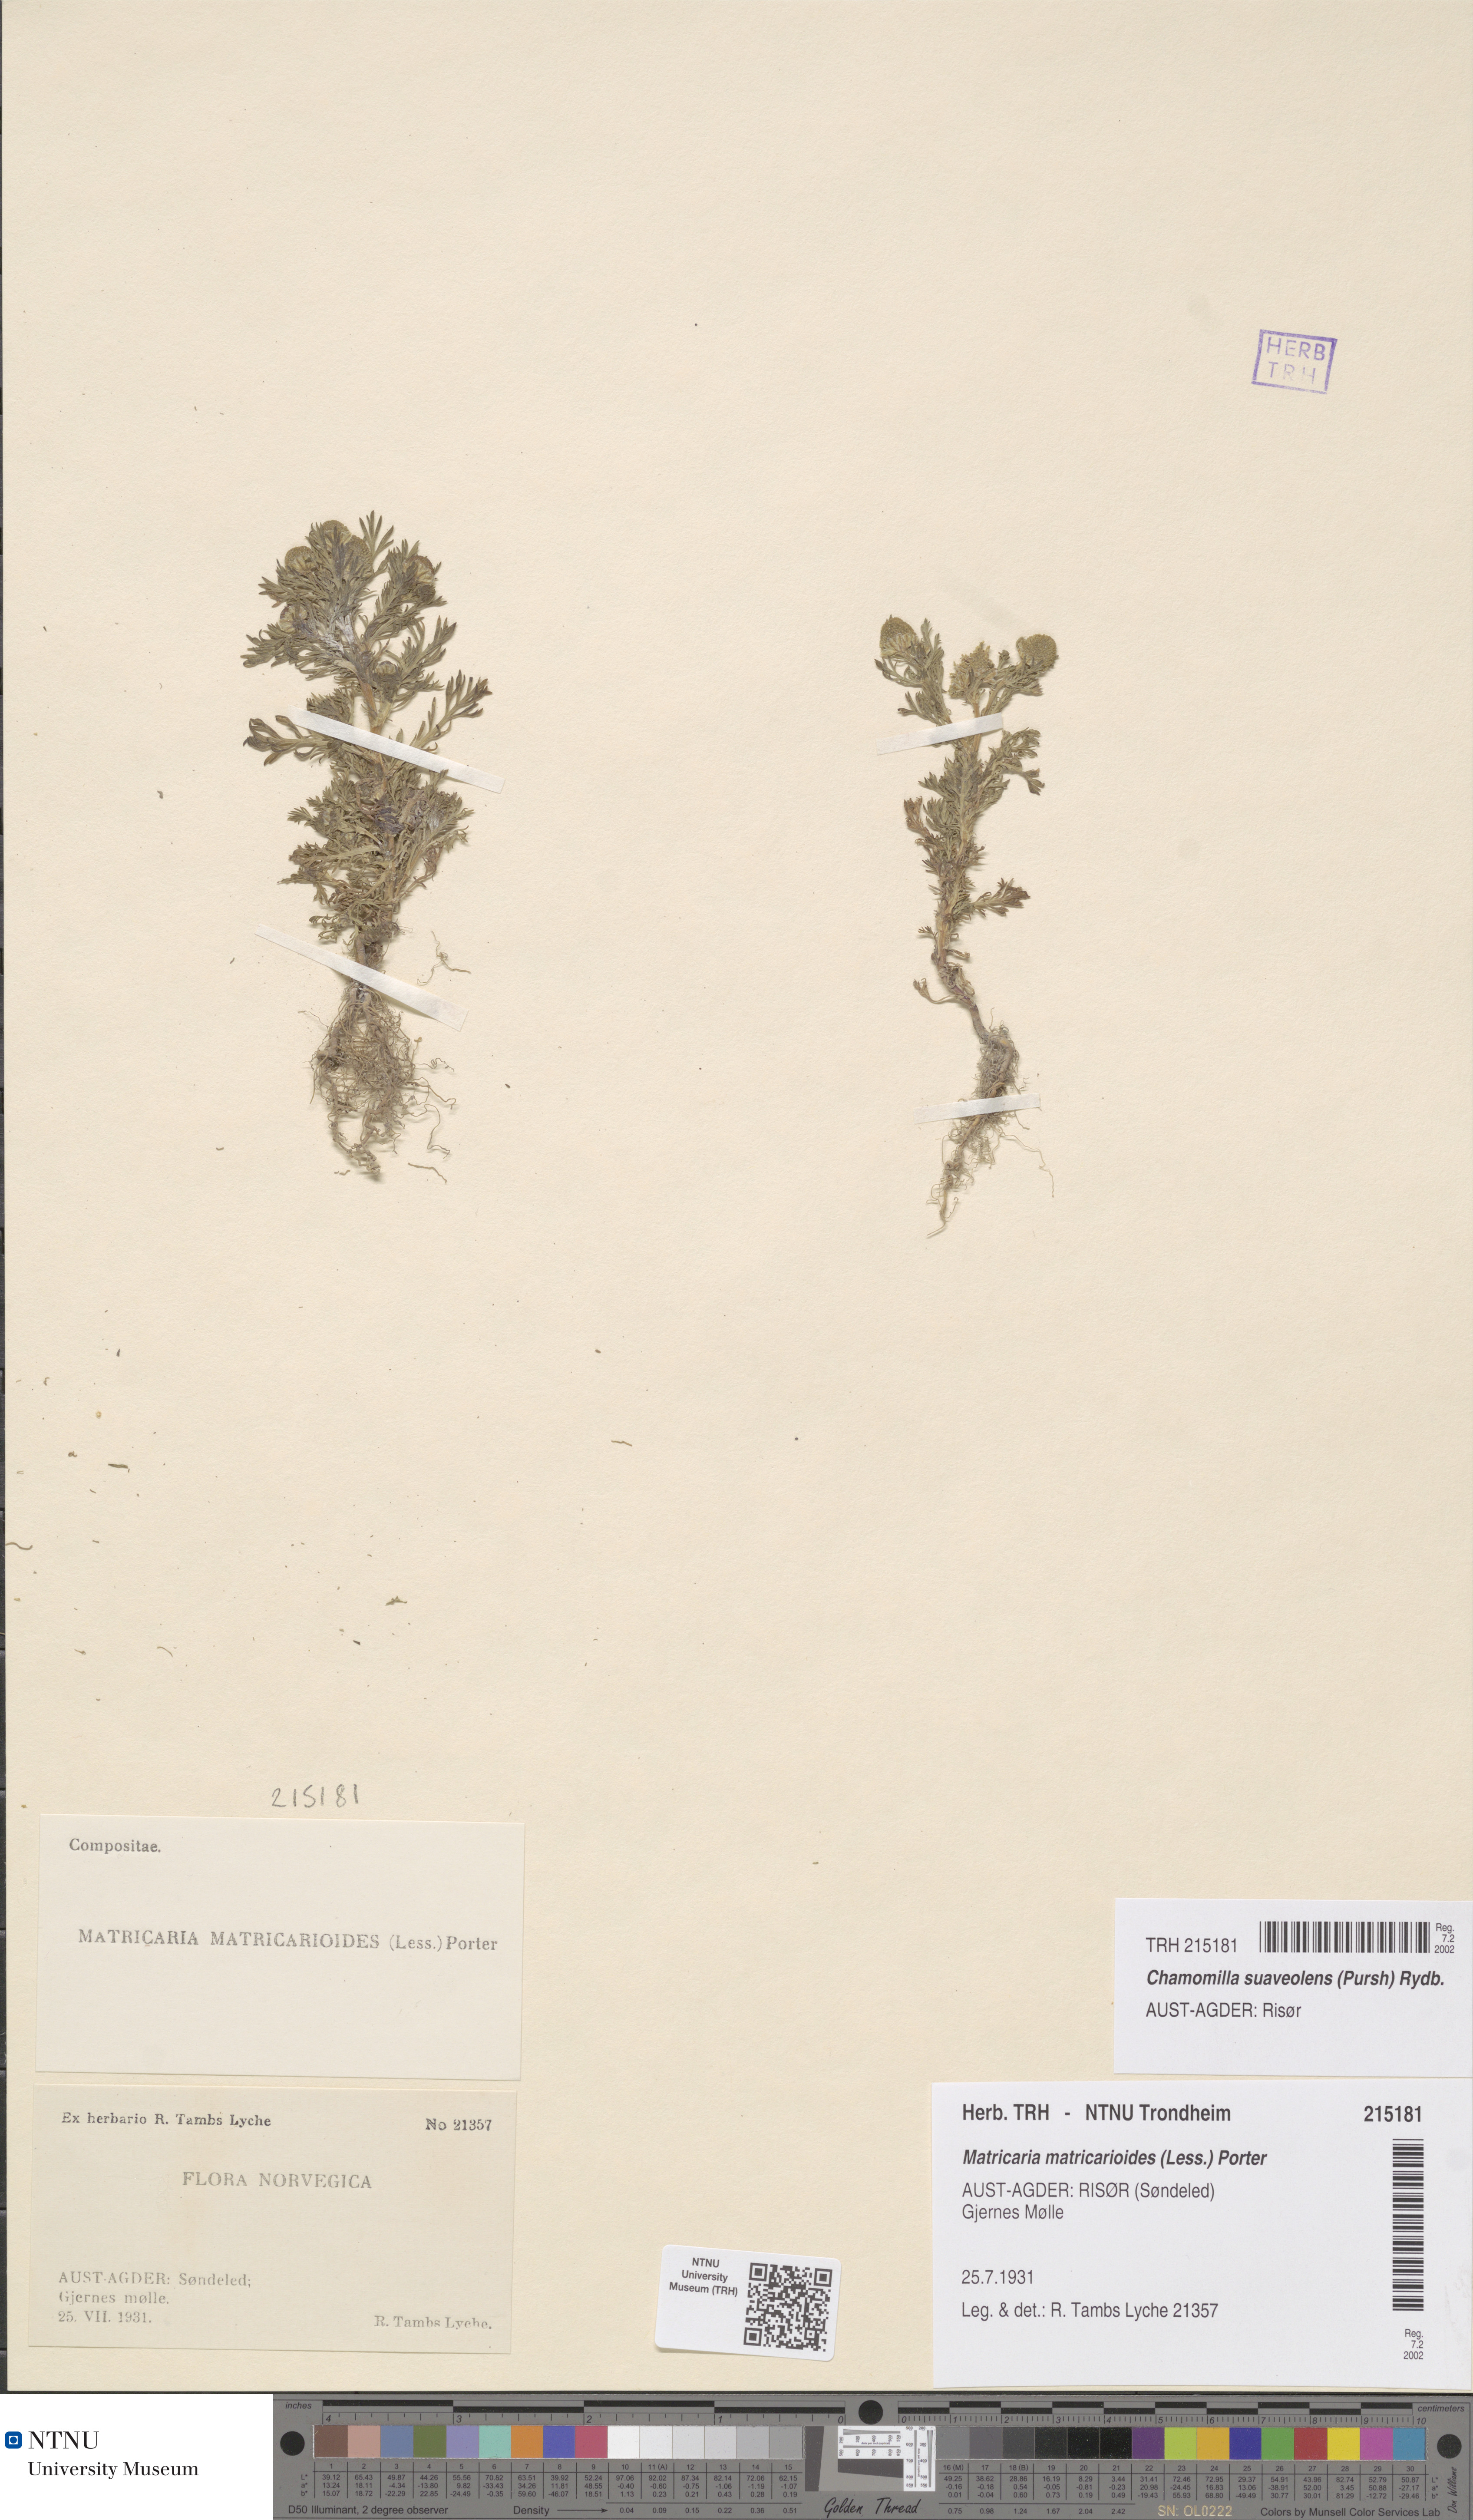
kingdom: Plantae
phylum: Tracheophyta
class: Magnoliopsida
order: Asterales
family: Asteraceae
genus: Matricaria
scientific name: Matricaria discoidea
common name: Disc mayweed
